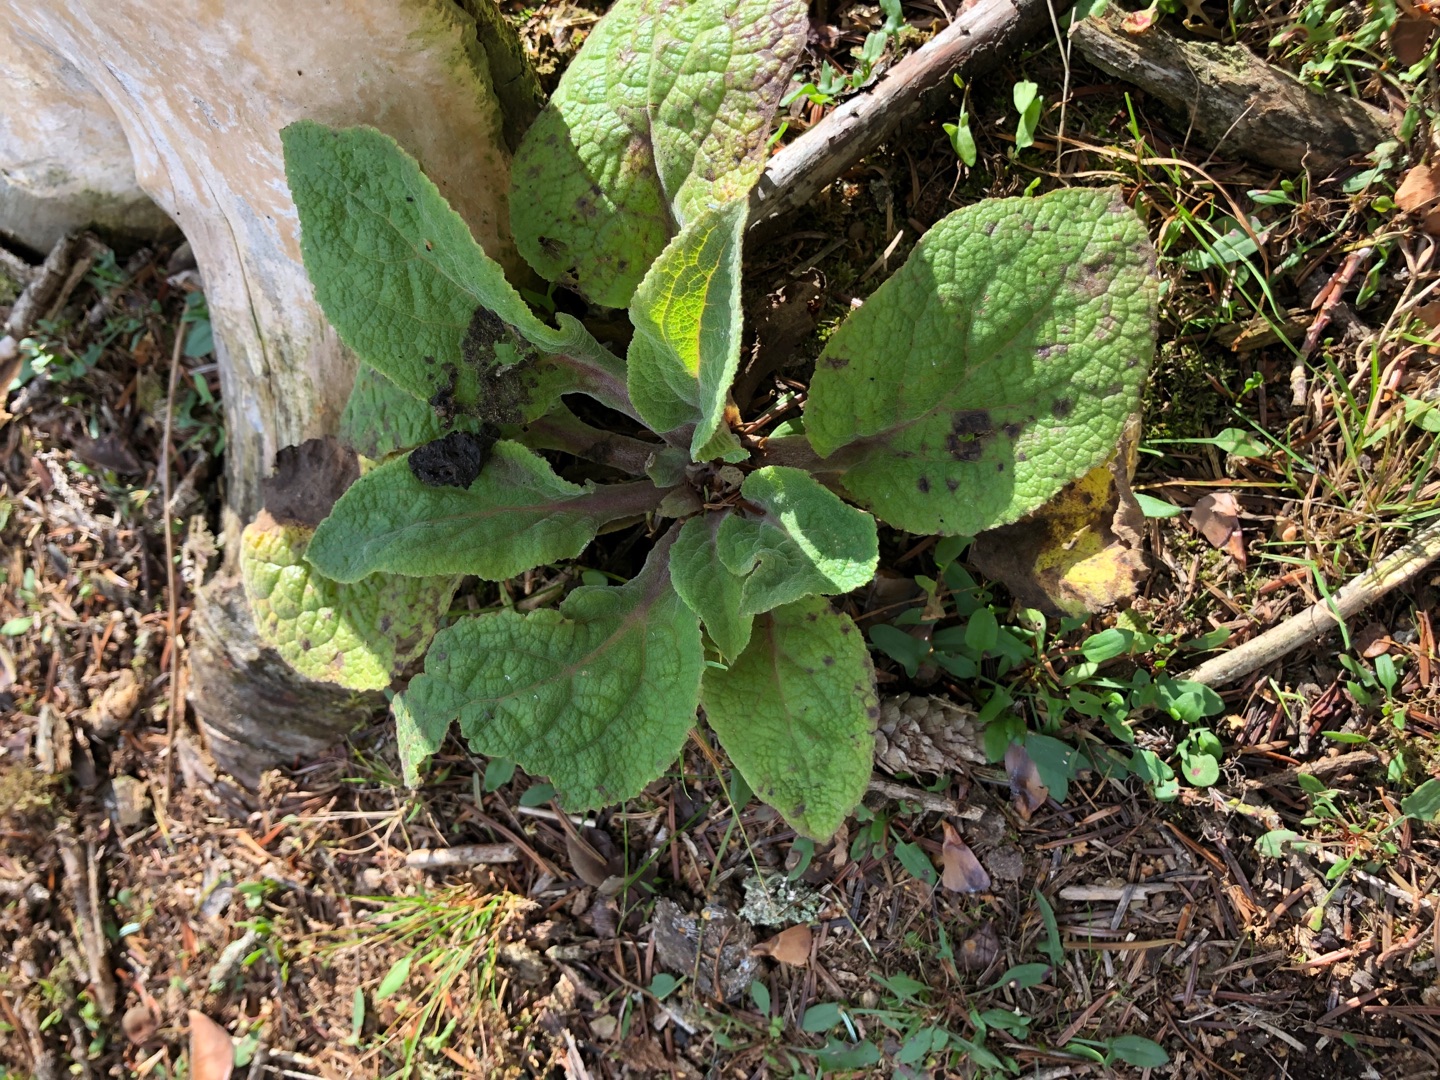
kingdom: Plantae
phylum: Tracheophyta
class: Magnoliopsida
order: Lamiales
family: Plantaginaceae
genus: Digitalis
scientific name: Digitalis purpurea
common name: Almindelig fingerbøl
